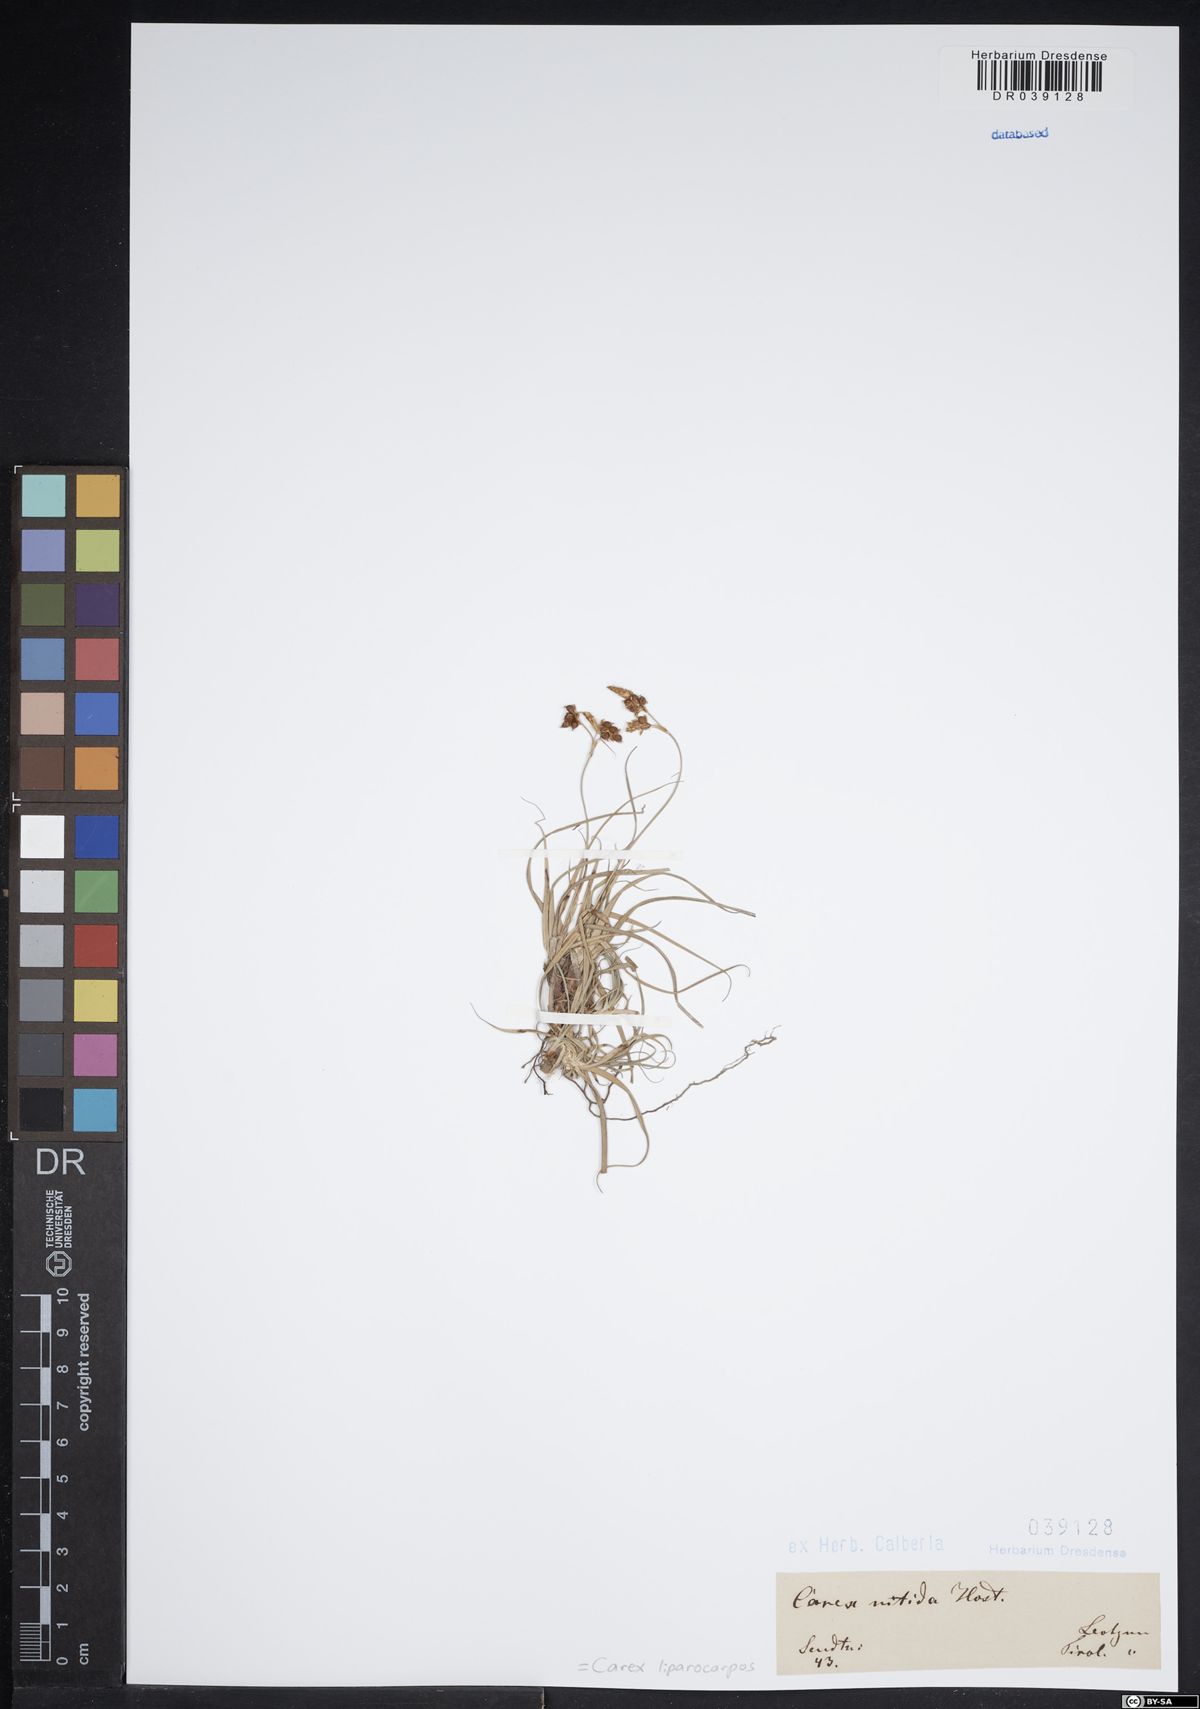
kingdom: Plantae
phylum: Tracheophyta
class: Liliopsida
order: Poales
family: Cyperaceae
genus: Carex
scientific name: Carex liparocarpos
